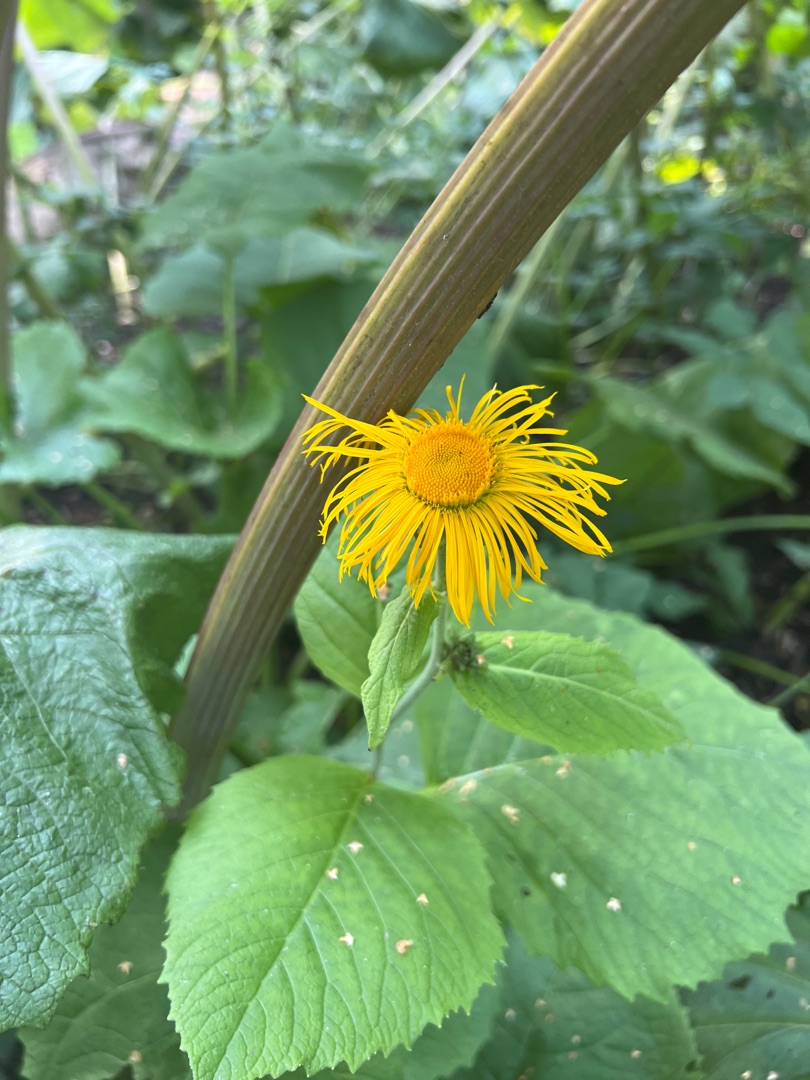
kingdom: Plantae
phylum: Tracheophyta
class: Magnoliopsida
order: Asterales
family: Asteraceae
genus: Telekia
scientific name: Telekia speciosa
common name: Tusindstråle
